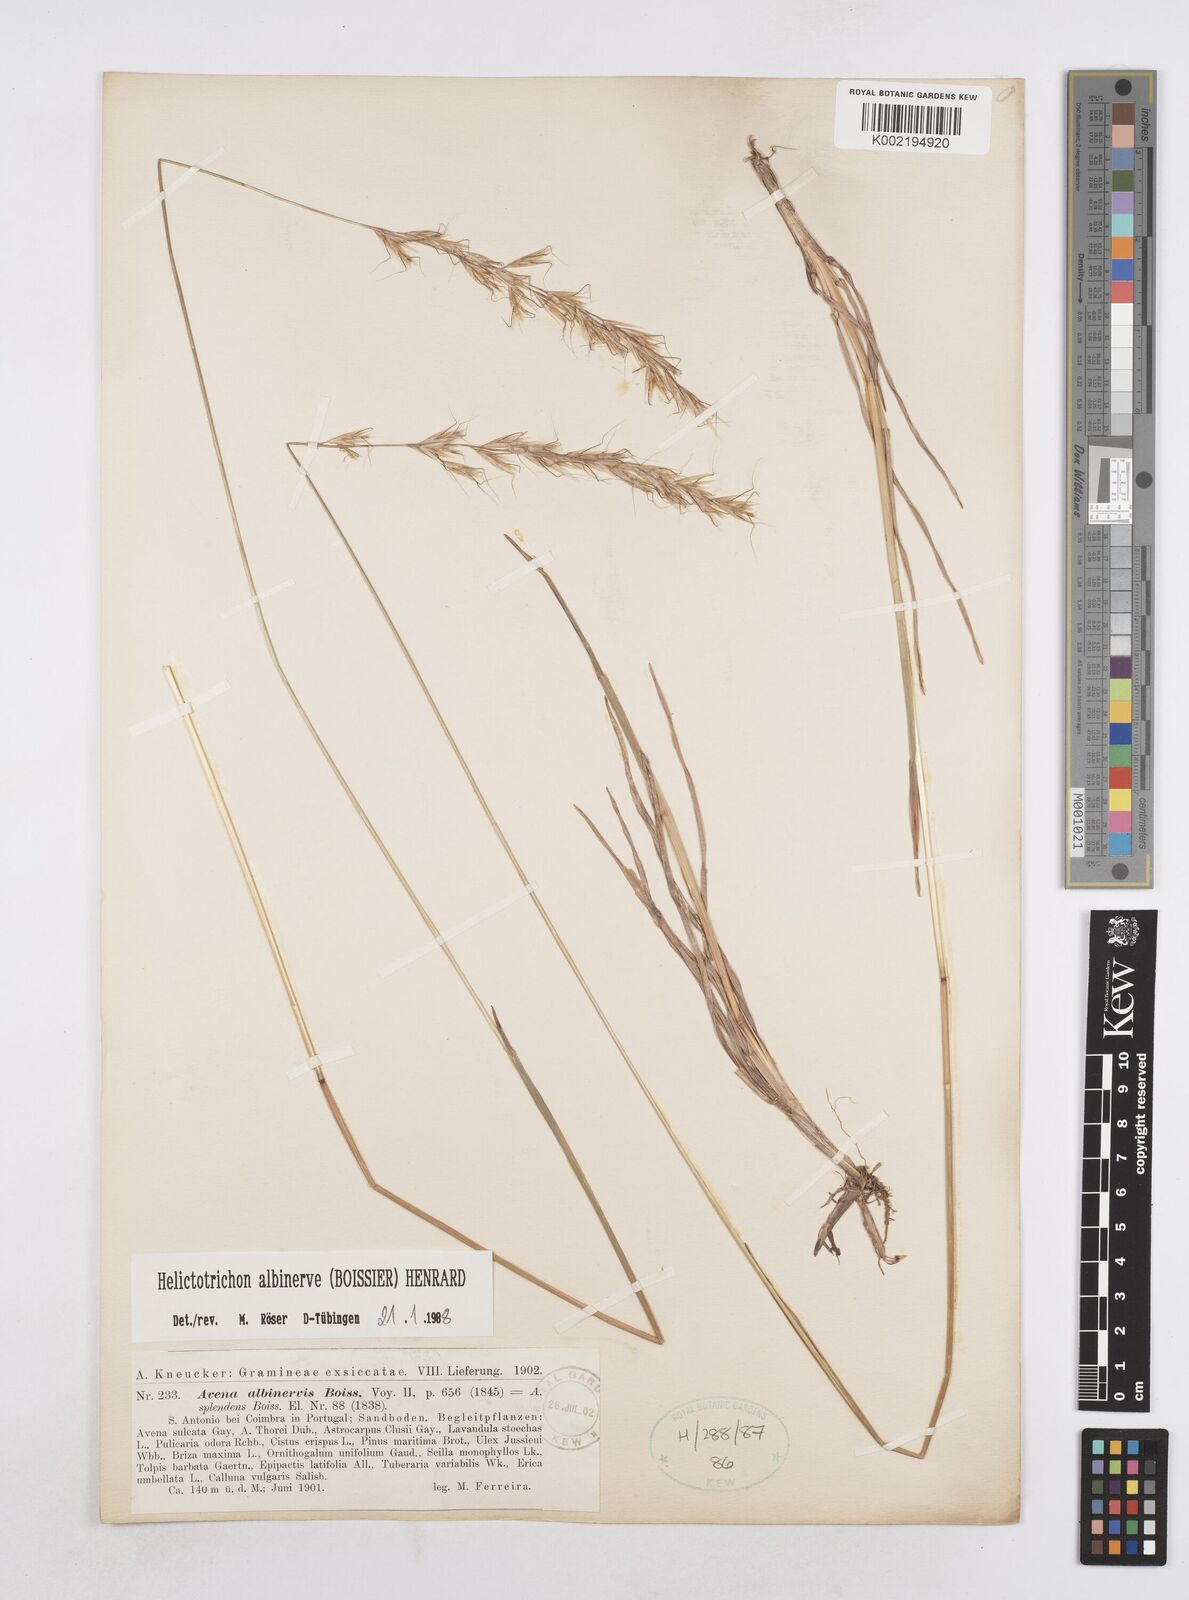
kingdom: Plantae
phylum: Tracheophyta
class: Liliopsida
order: Poales
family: Poaceae
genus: Helictochloa
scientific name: Helictochloa albinervis
